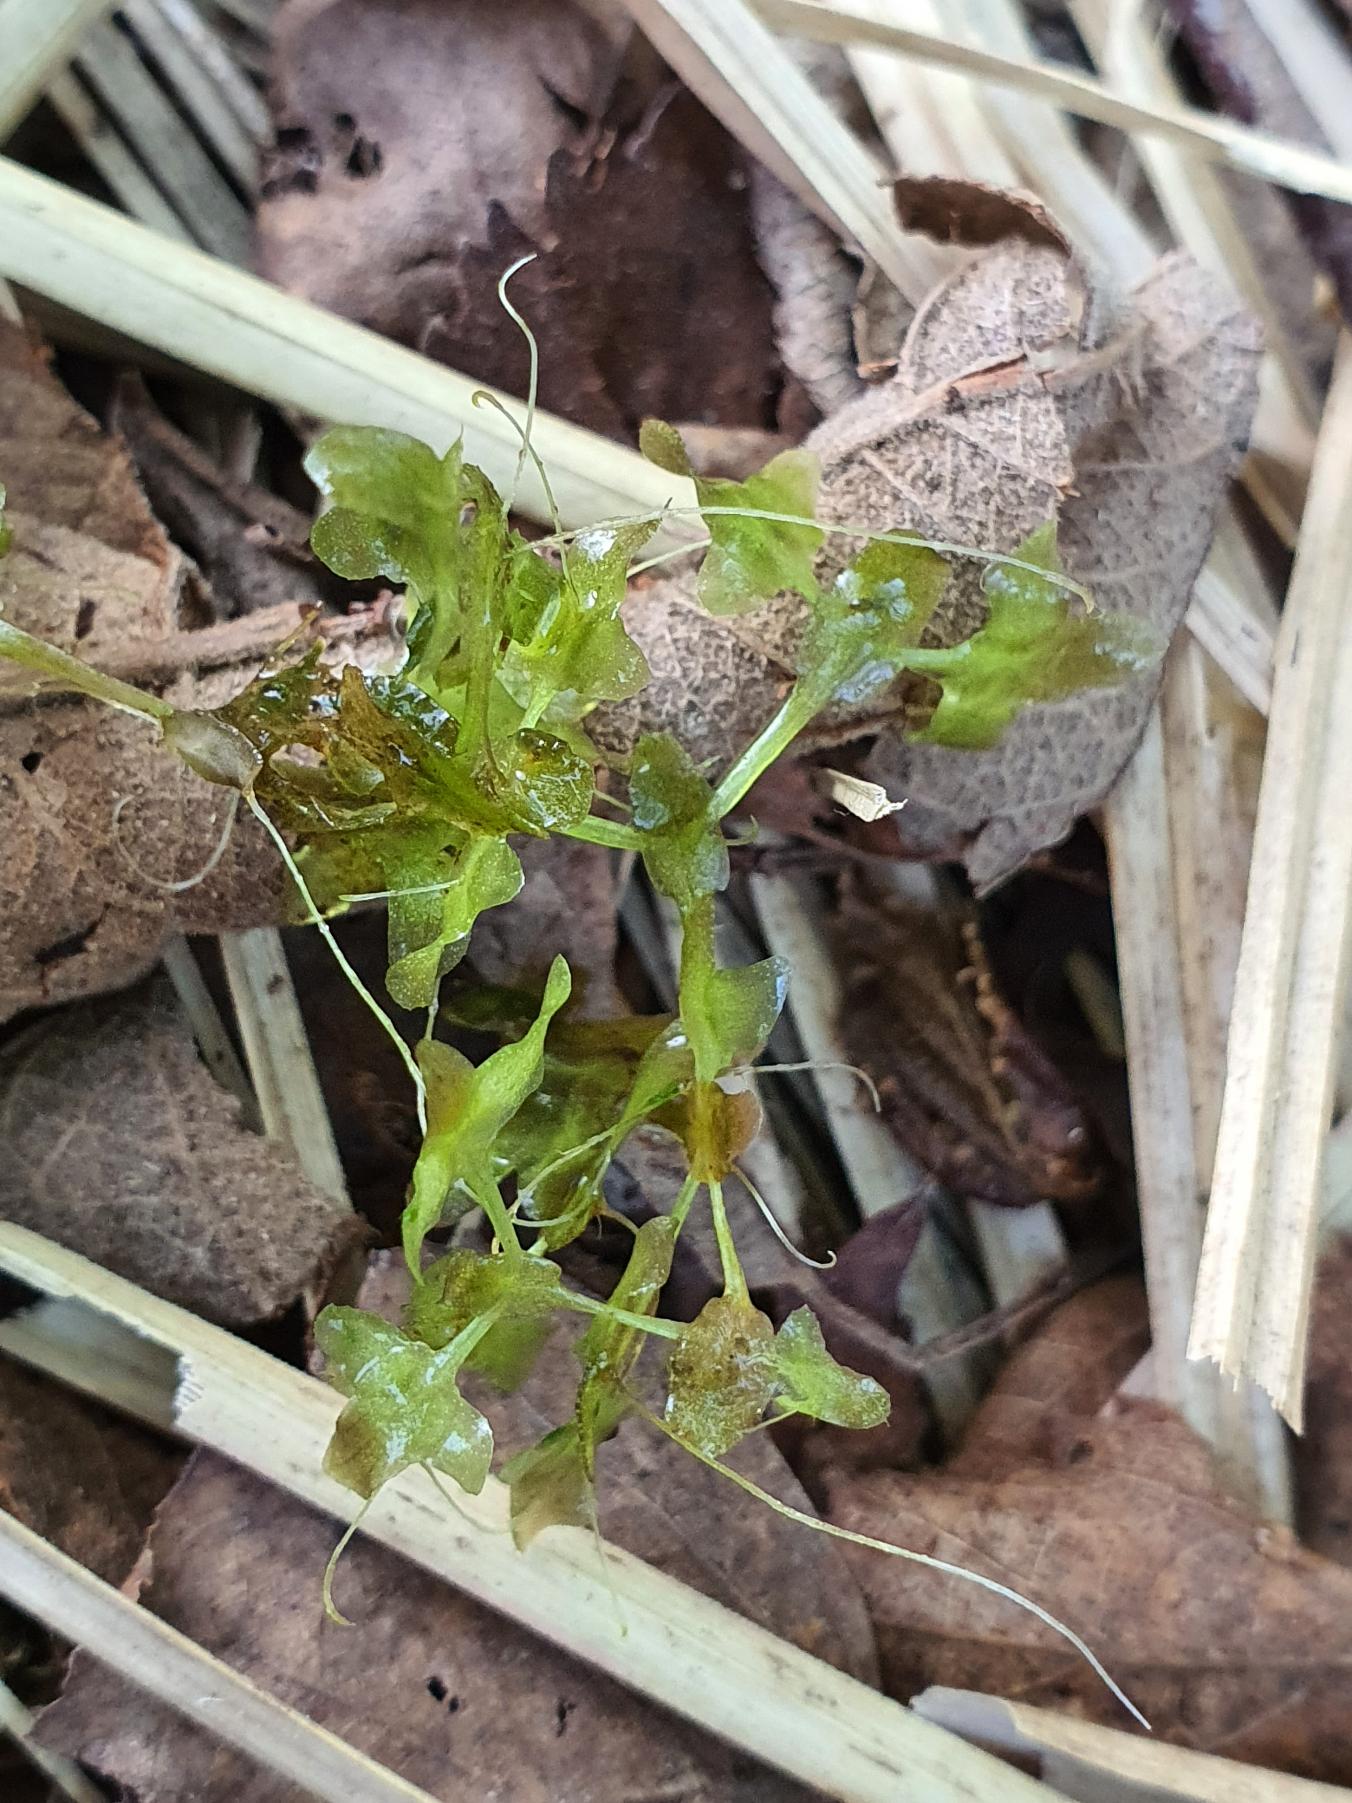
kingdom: Plantae
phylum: Tracheophyta
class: Liliopsida
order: Alismatales
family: Araceae
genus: Lemna
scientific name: Lemna trisulca
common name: Kors-andemad
